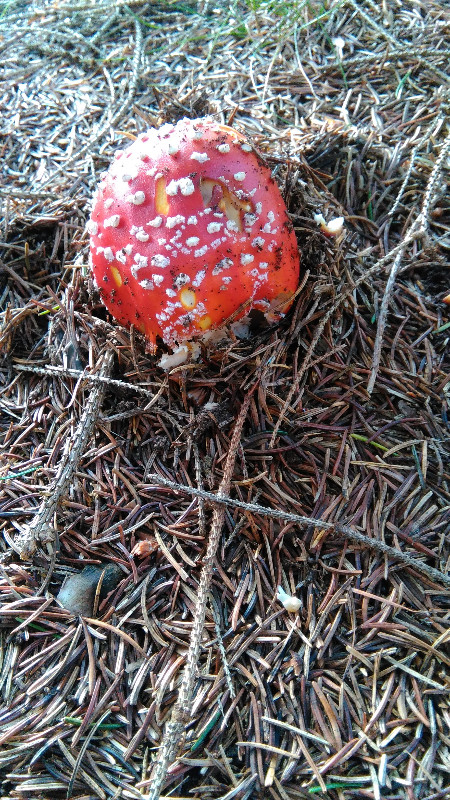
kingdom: Fungi
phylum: Basidiomycota
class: Agaricomycetes
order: Agaricales
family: Amanitaceae
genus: Amanita
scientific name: Amanita muscaria
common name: rød fluesvamp
